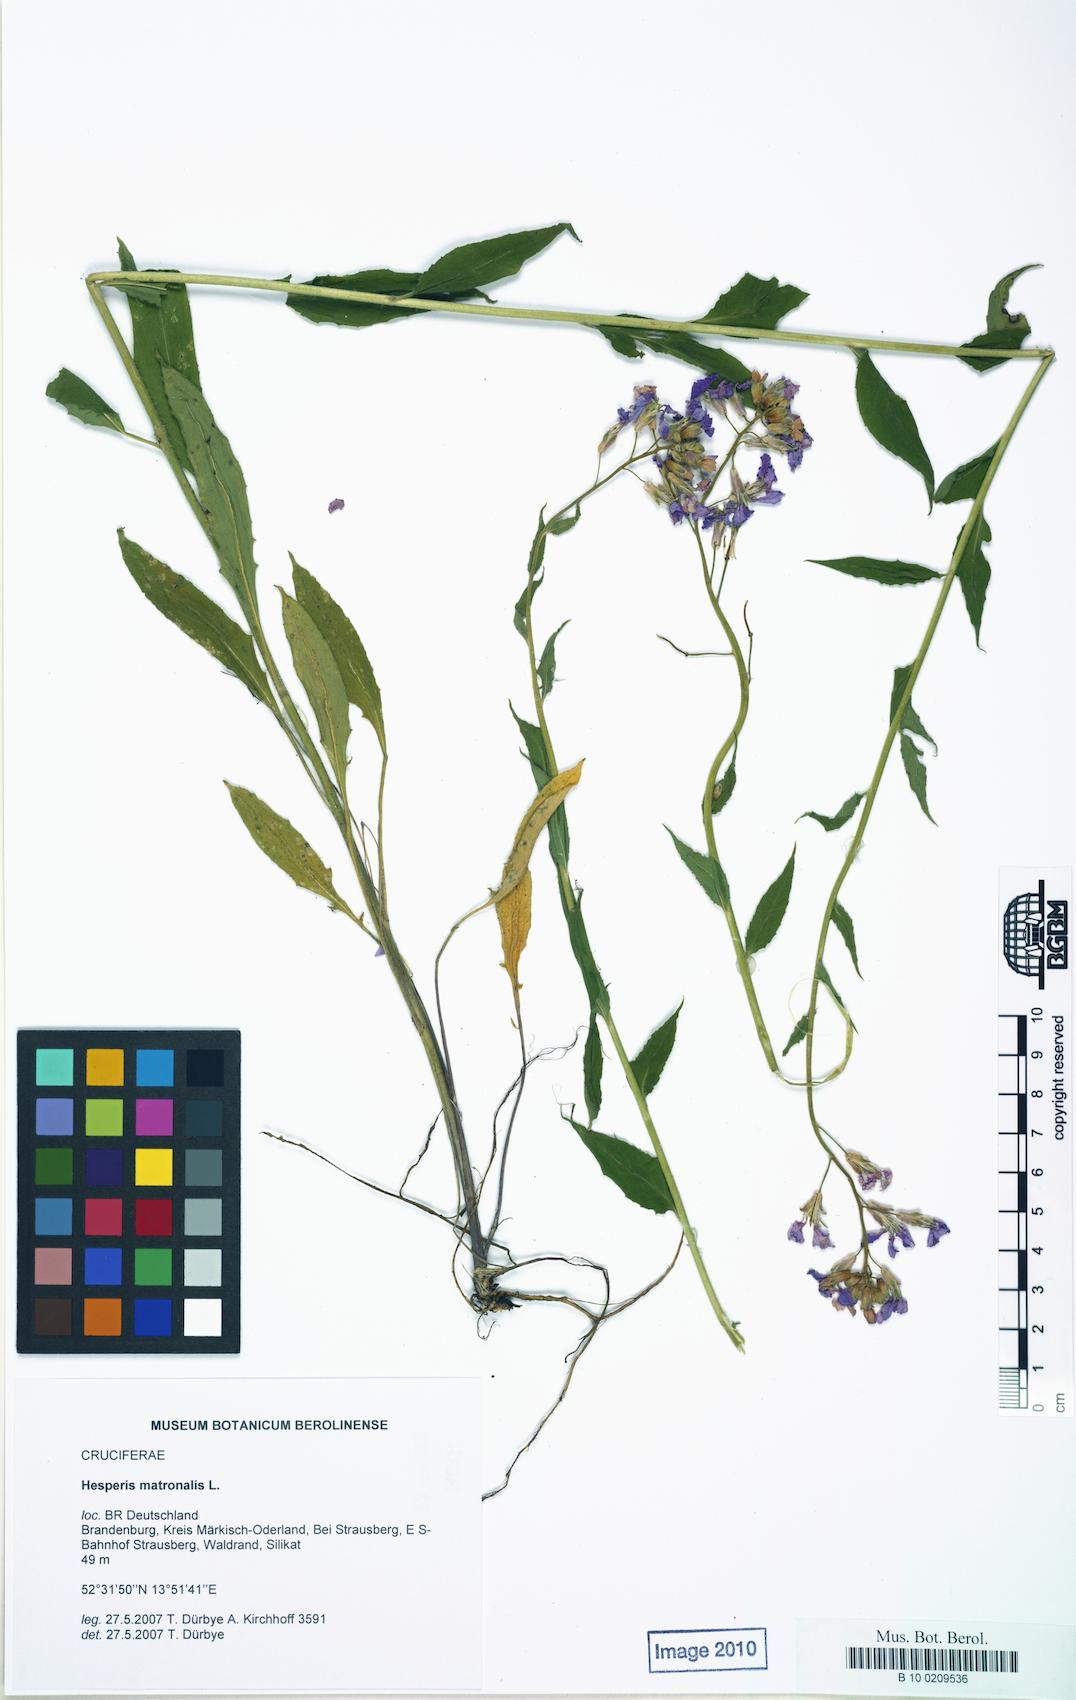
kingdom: Plantae
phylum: Tracheophyta
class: Magnoliopsida
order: Brassicales
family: Brassicaceae
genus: Hesperis
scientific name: Hesperis matronalis
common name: Dame's-violet
